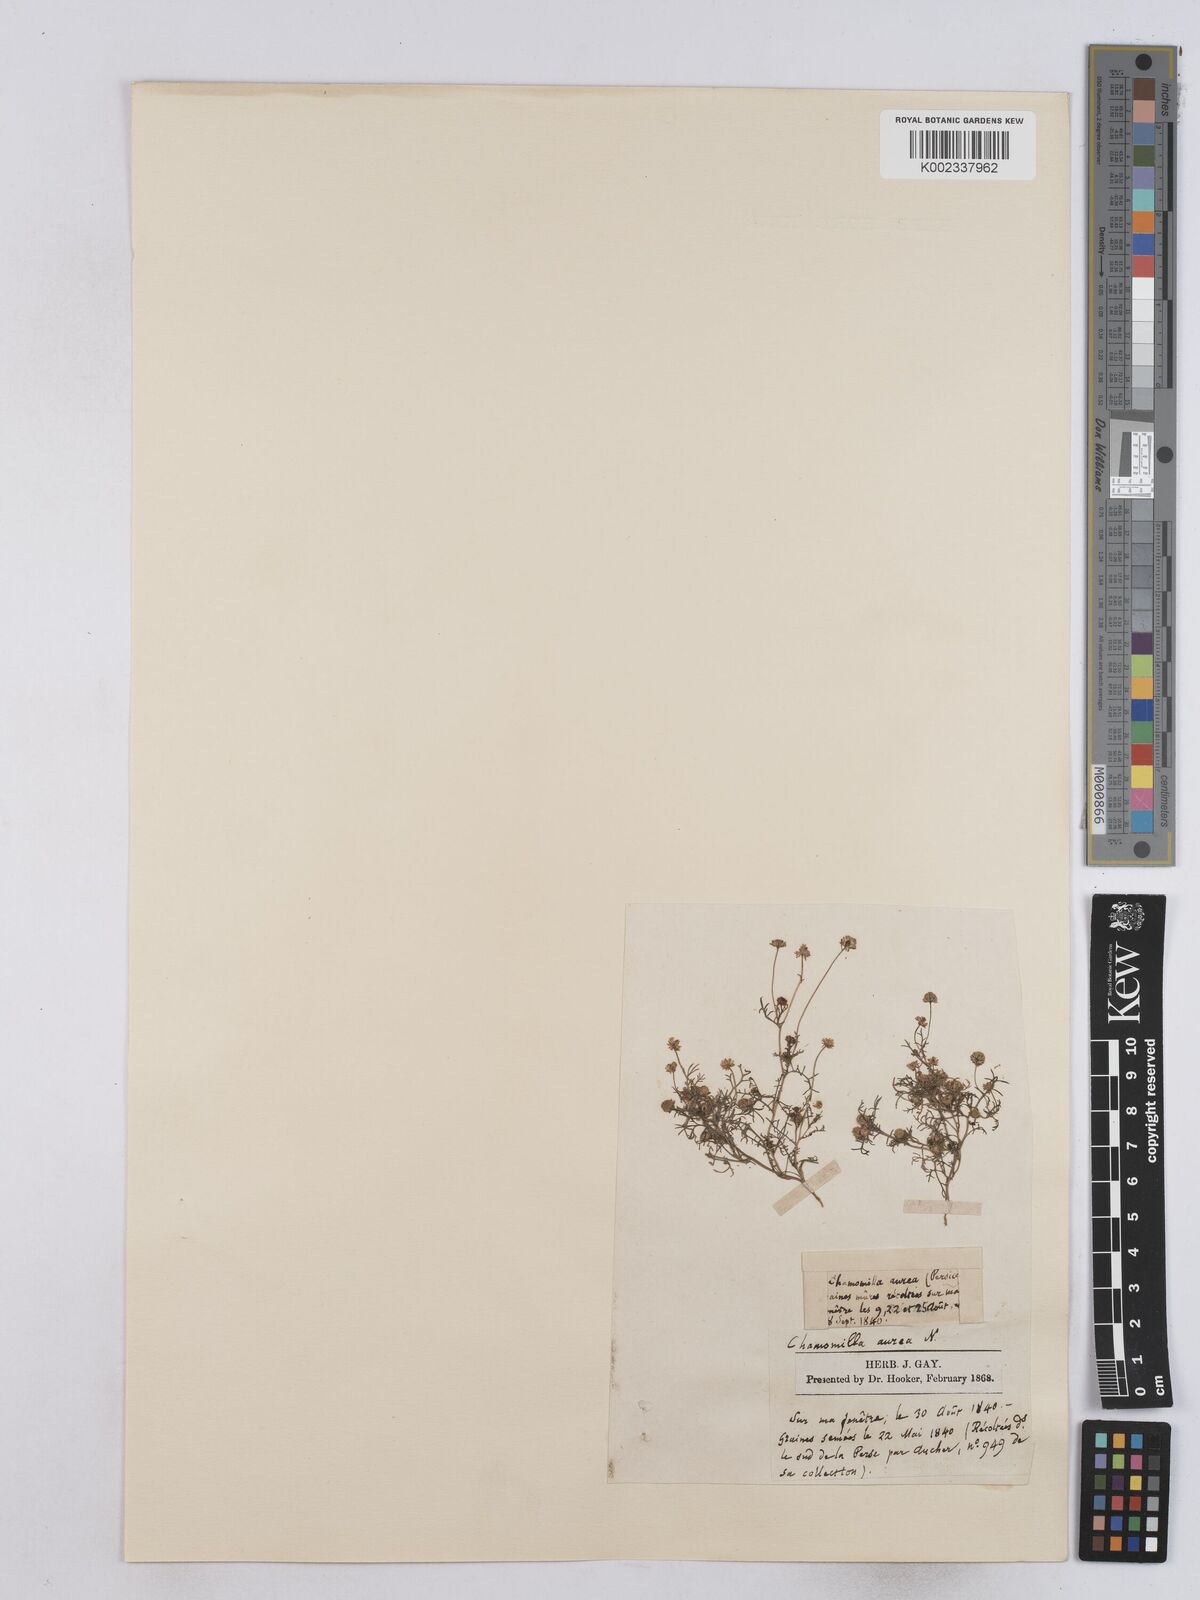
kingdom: Plantae
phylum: Tracheophyta
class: Magnoliopsida
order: Asterales
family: Asteraceae
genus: Matricaria
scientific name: Matricaria aurea
